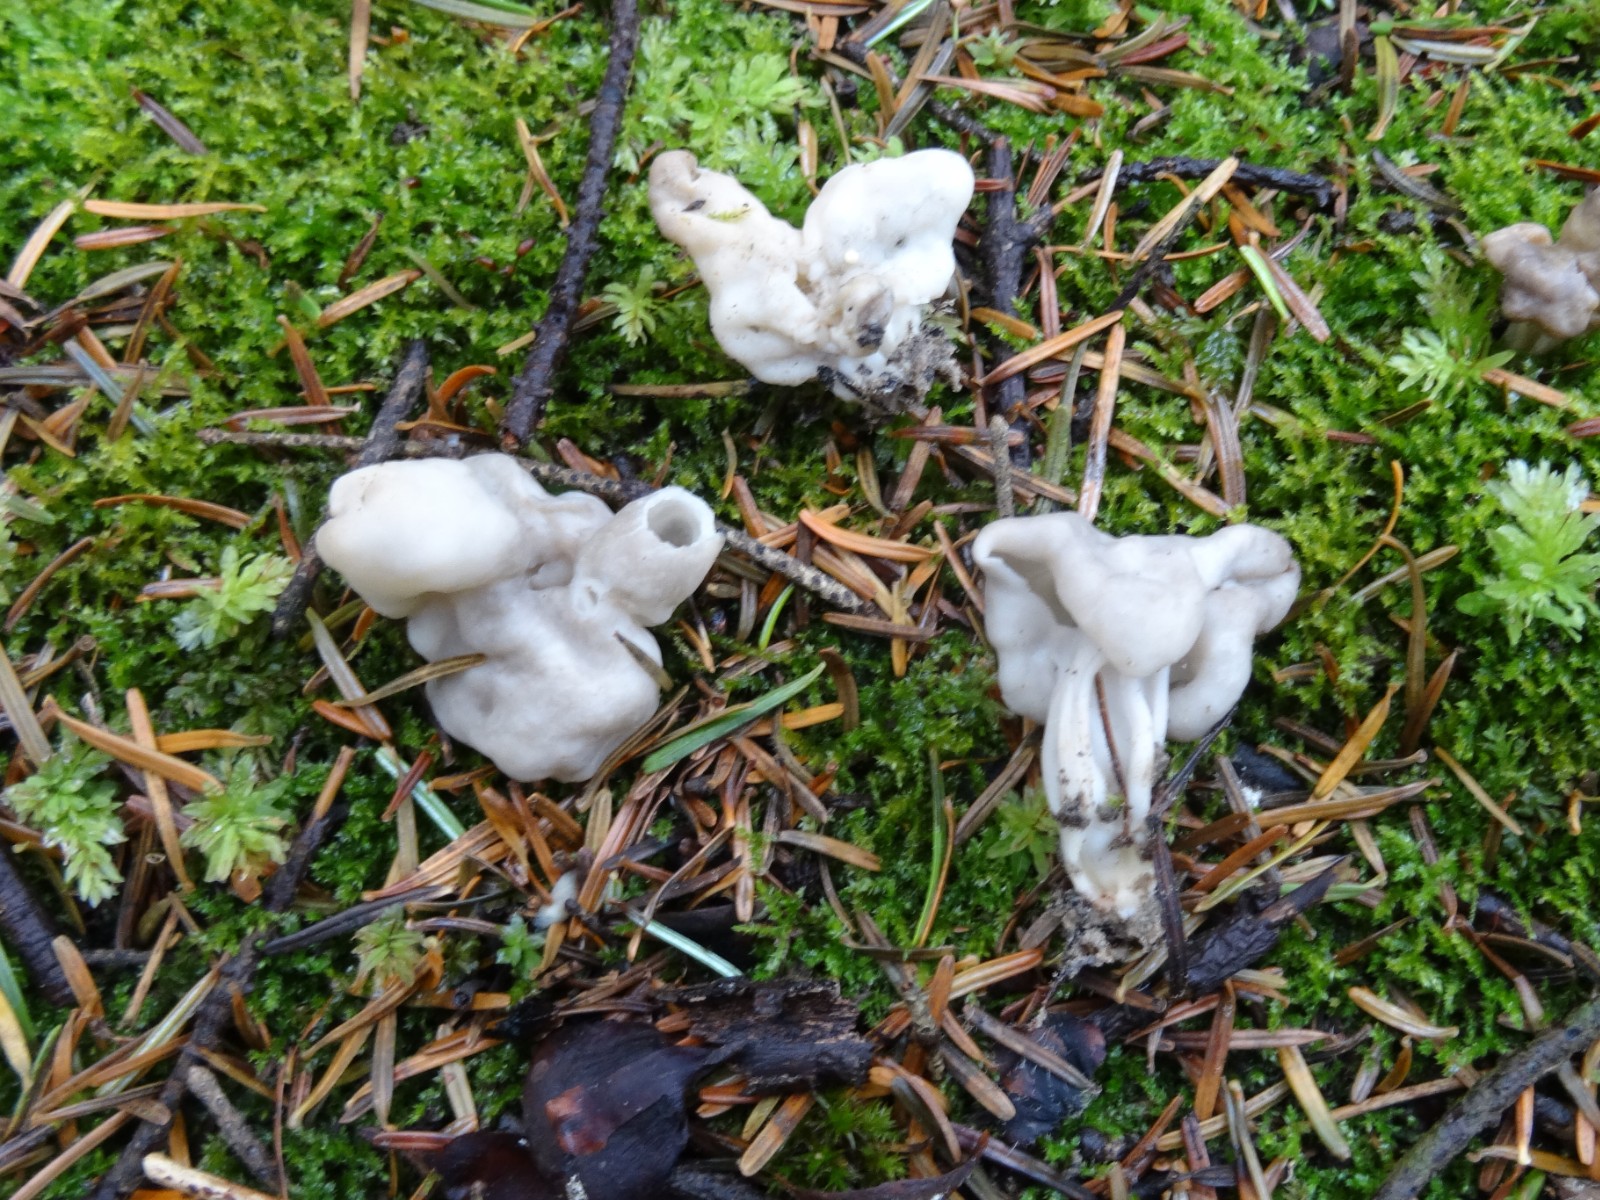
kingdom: Fungi
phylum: Ascomycota
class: Pezizomycetes
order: Pezizales
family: Helvellaceae
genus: Helvella
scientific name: Helvella lacunosa
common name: grubet foldhat
